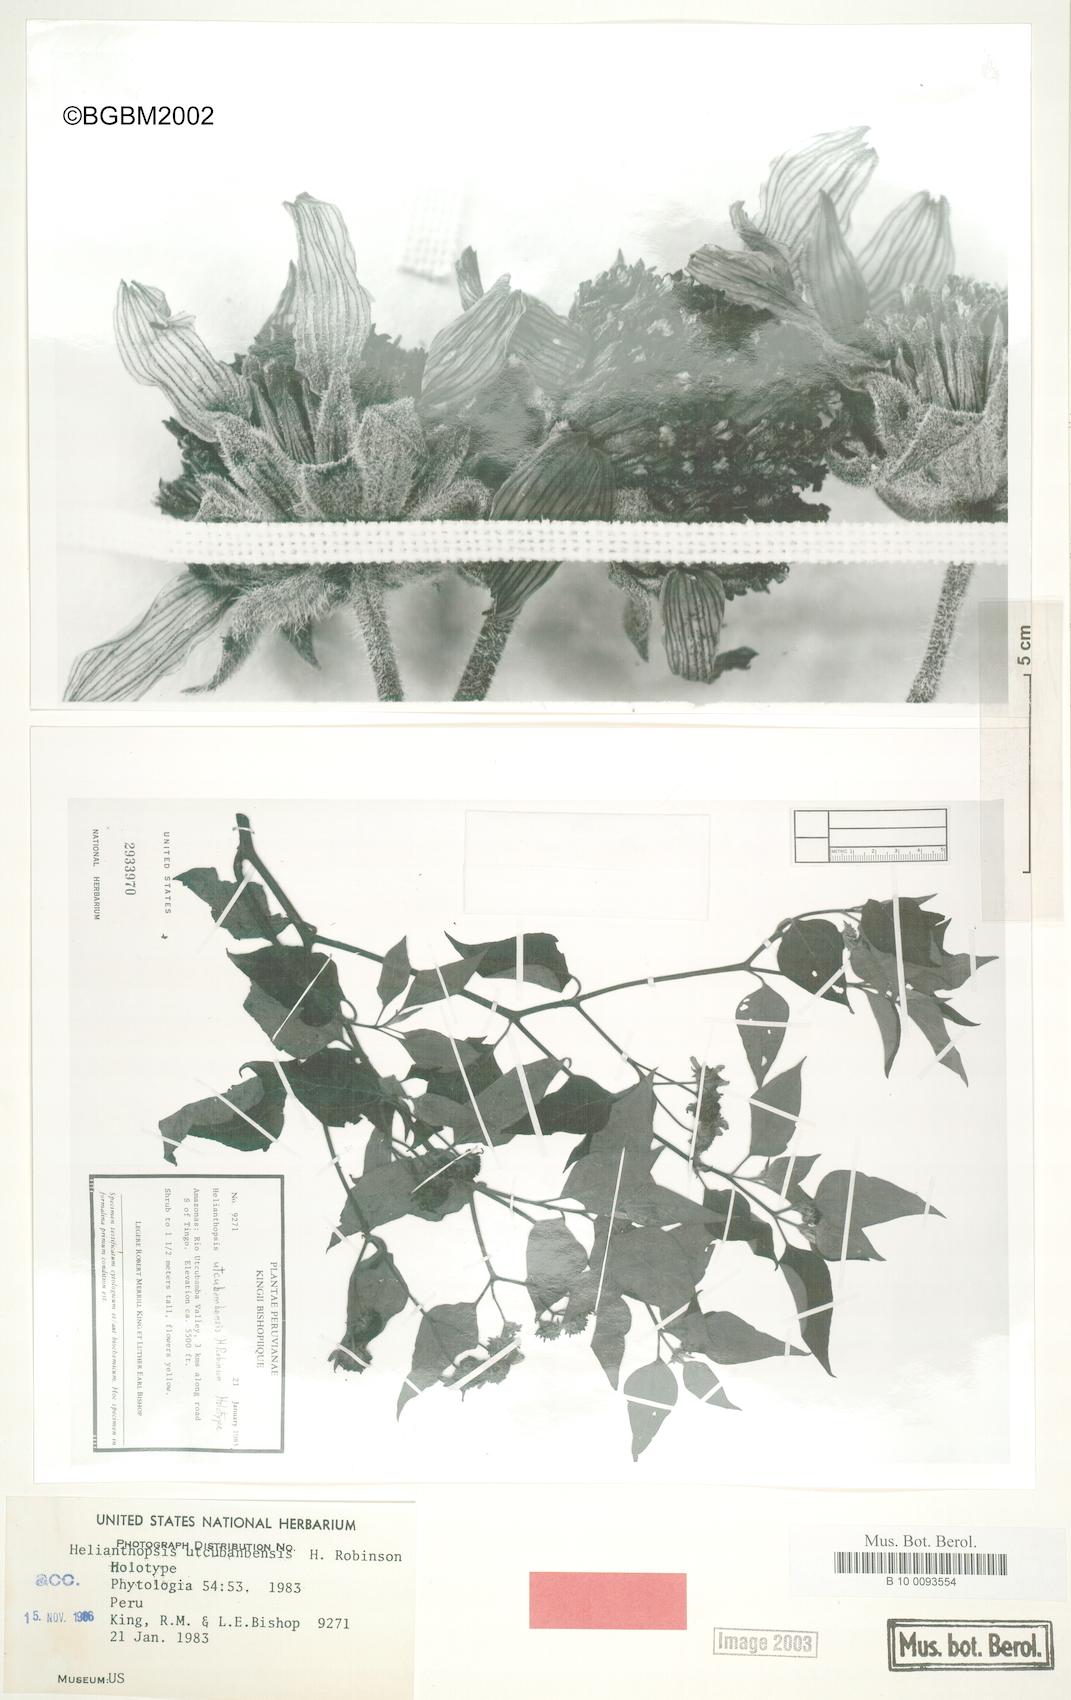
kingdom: Plantae
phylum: Tracheophyta
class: Magnoliopsida
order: Asterales
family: Asteraceae
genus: Pappobolus
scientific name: Pappobolus matthewsii
